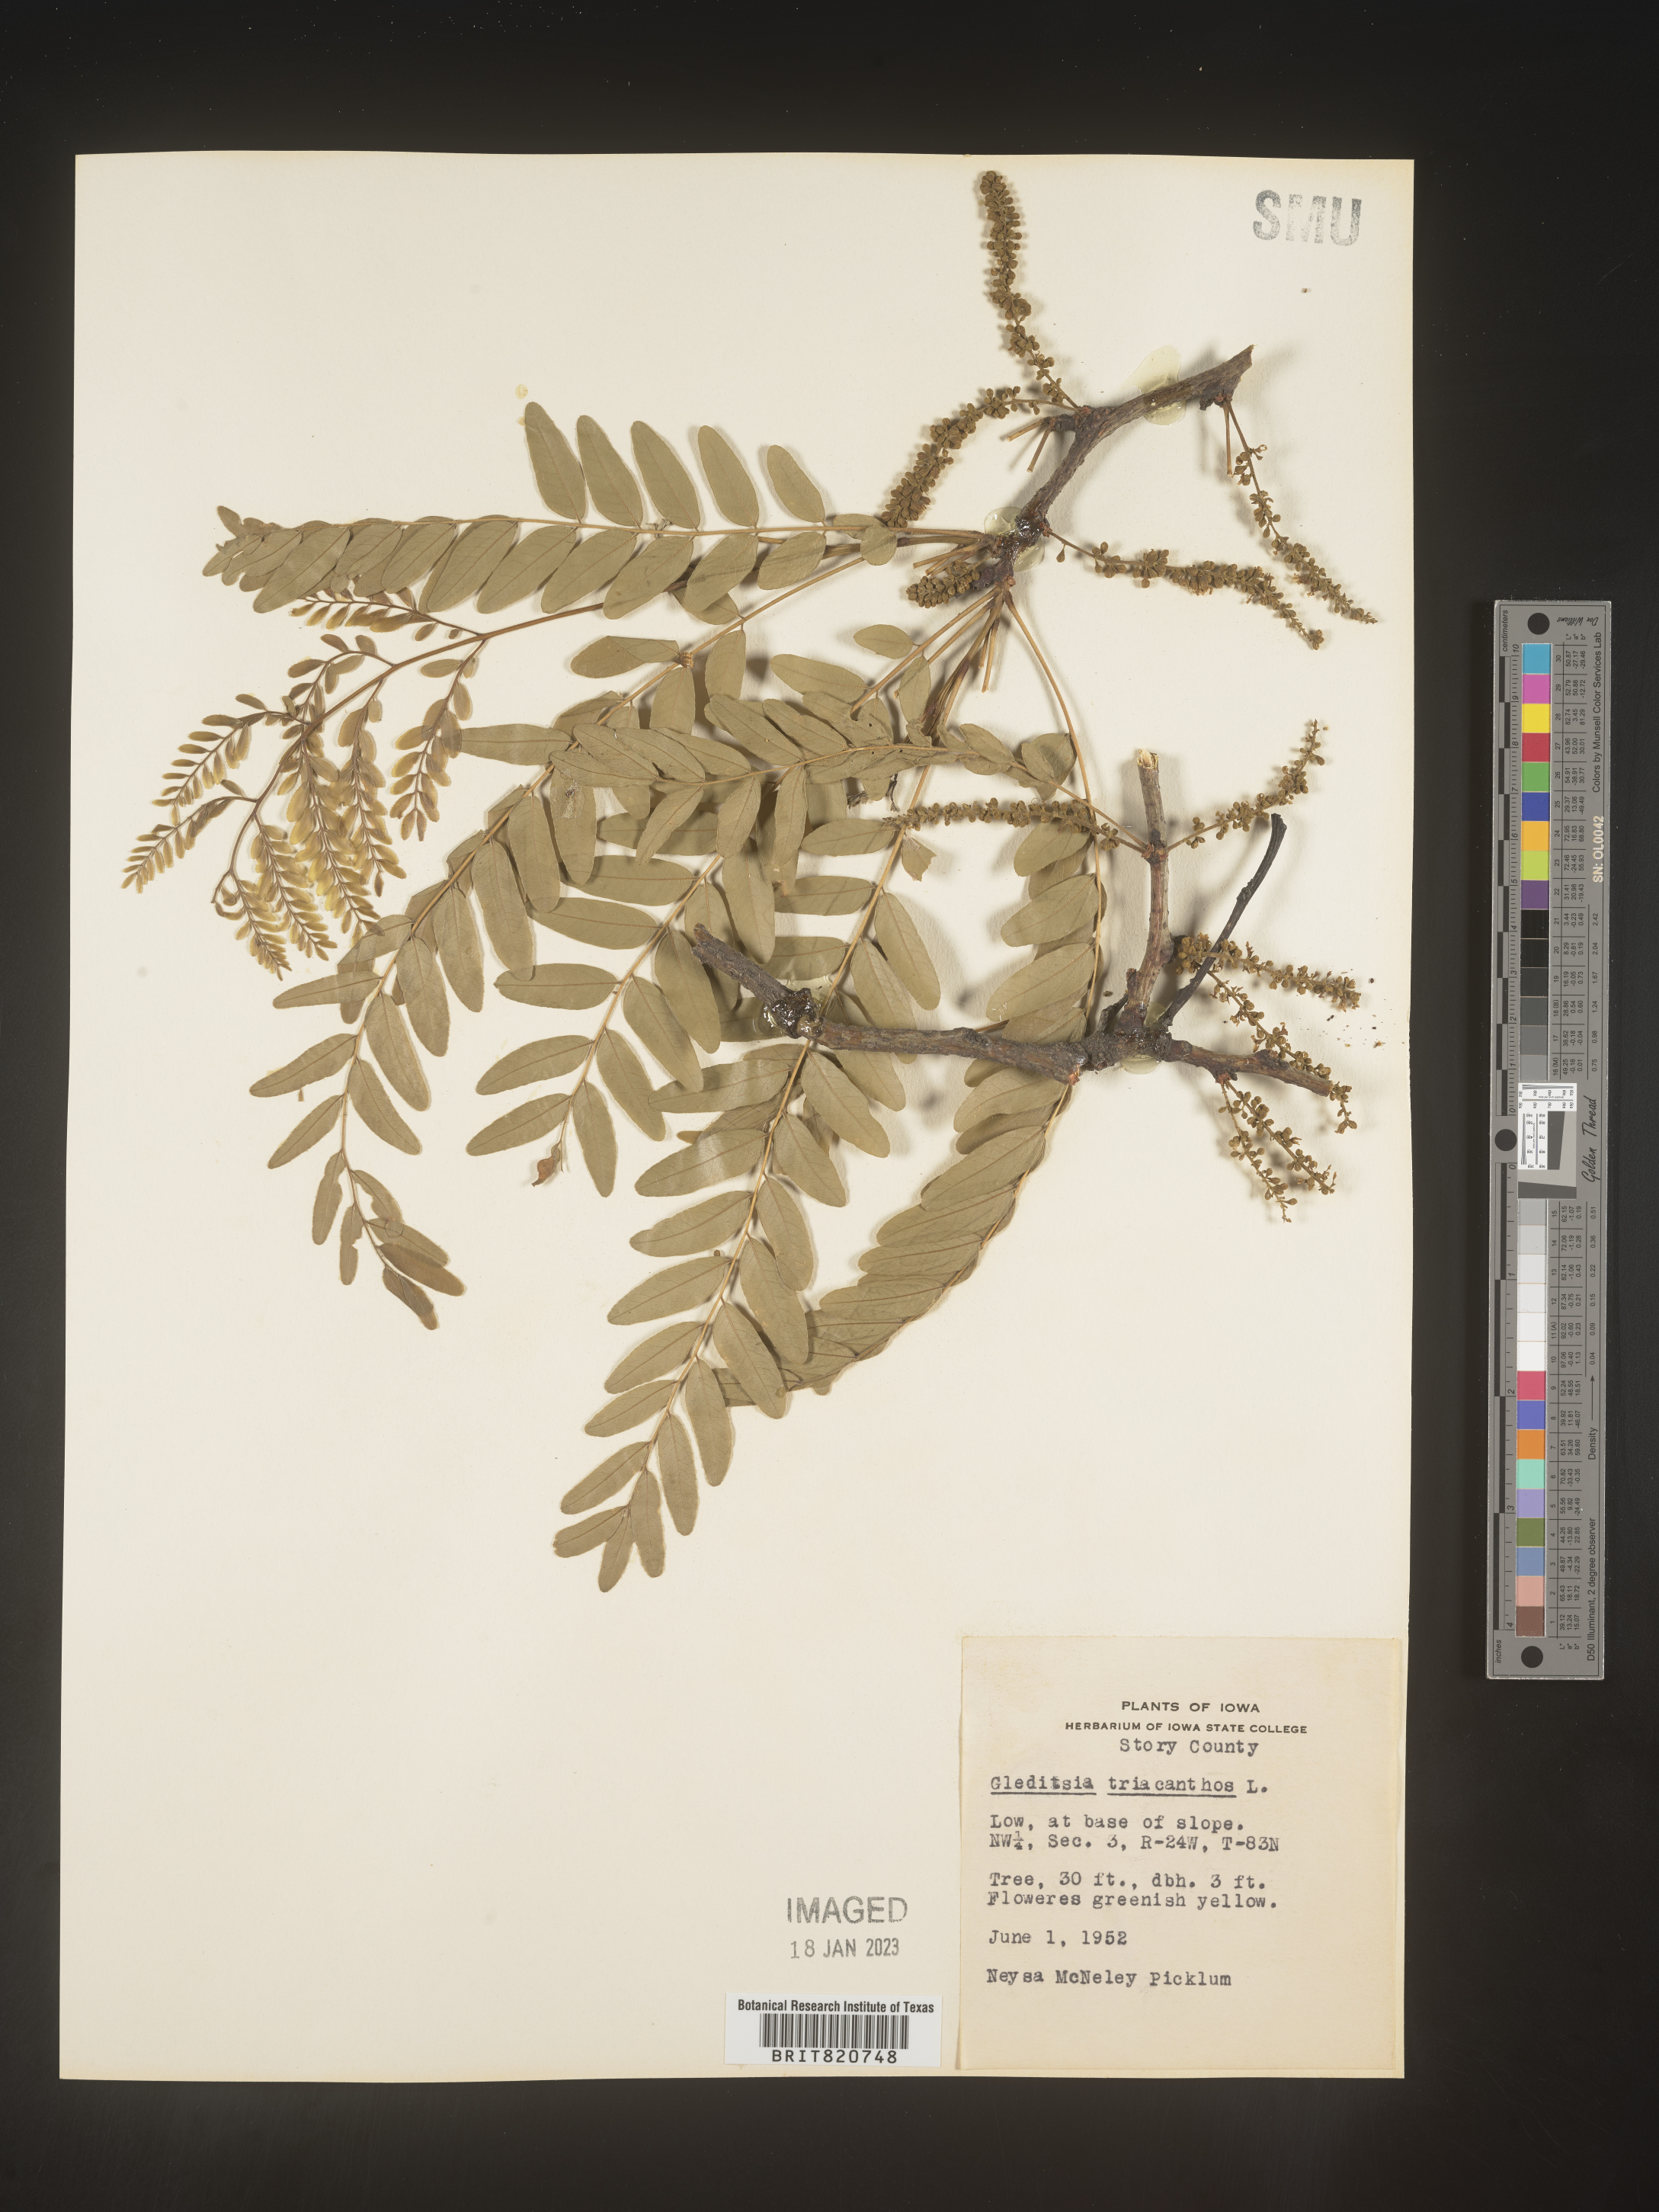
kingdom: Plantae
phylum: Tracheophyta
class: Magnoliopsida
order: Fabales
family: Fabaceae
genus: Gleditsia
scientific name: Gleditsia triacanthos
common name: Common honeylocust
